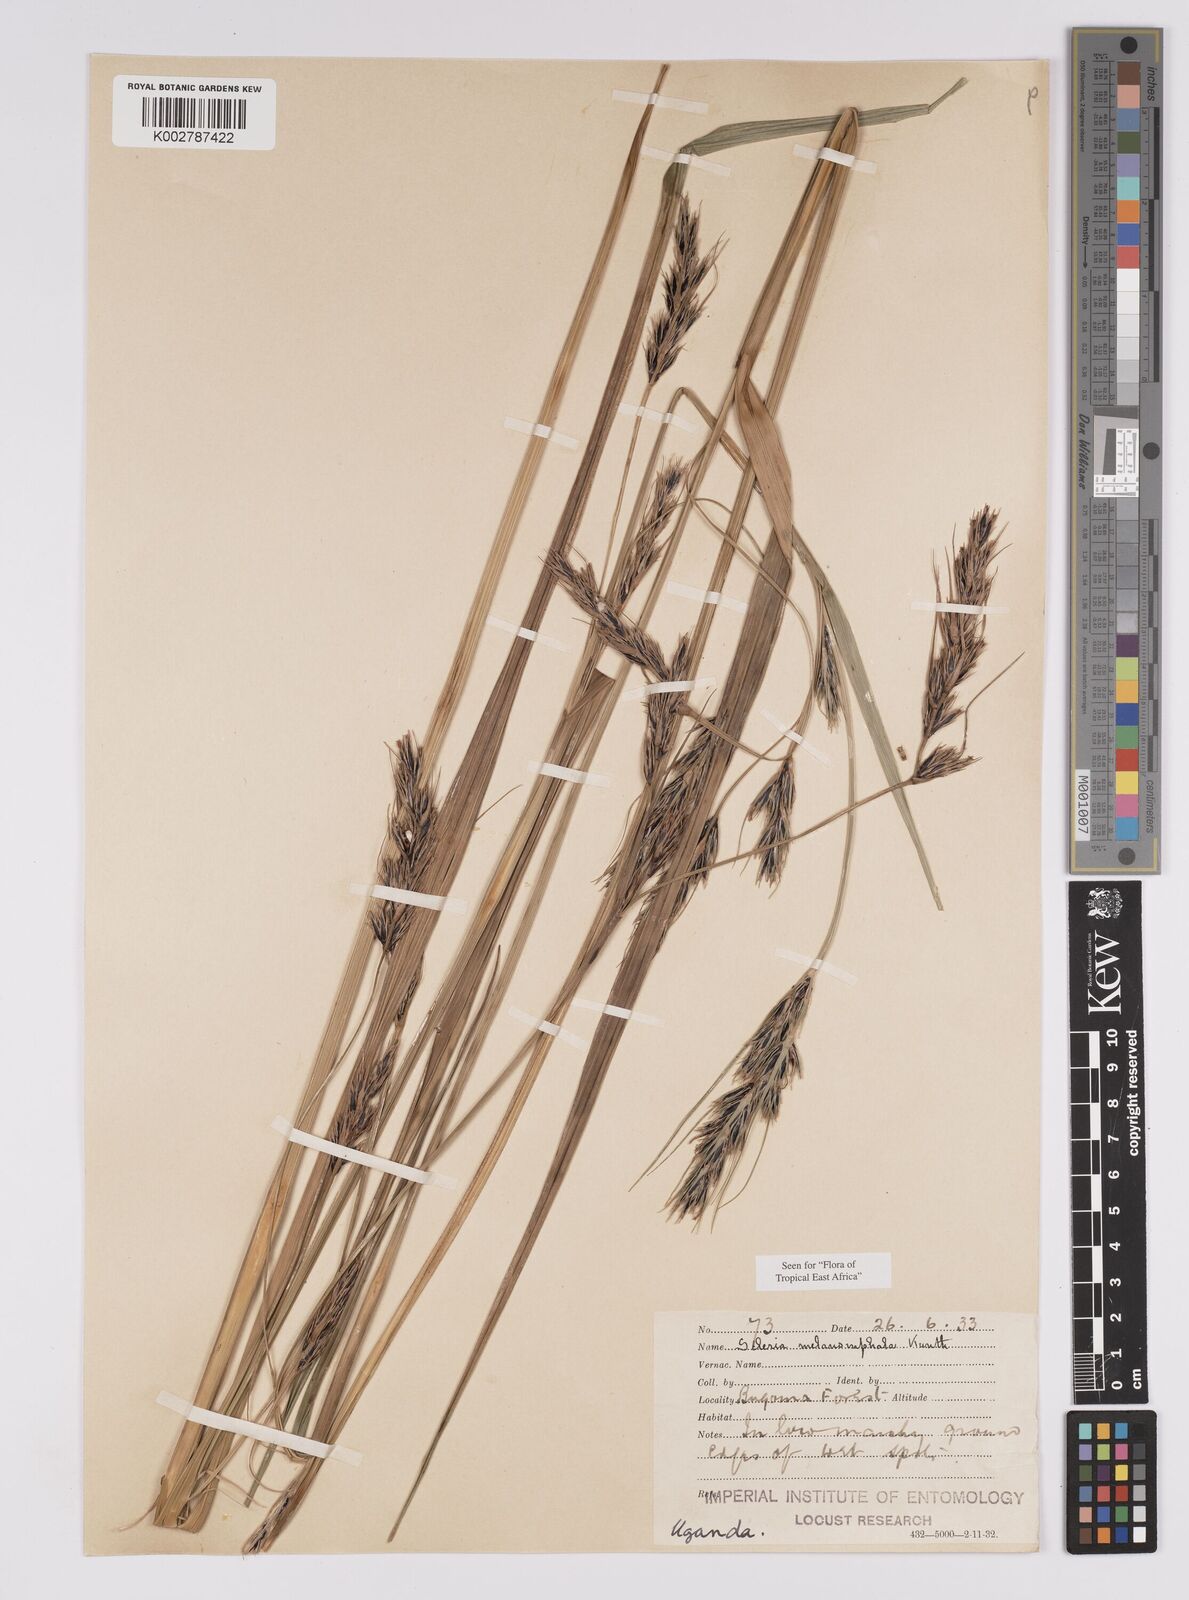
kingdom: Plantae
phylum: Tracheophyta
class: Liliopsida
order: Poales
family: Cyperaceae
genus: Scleria
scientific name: Scleria melanomphala
